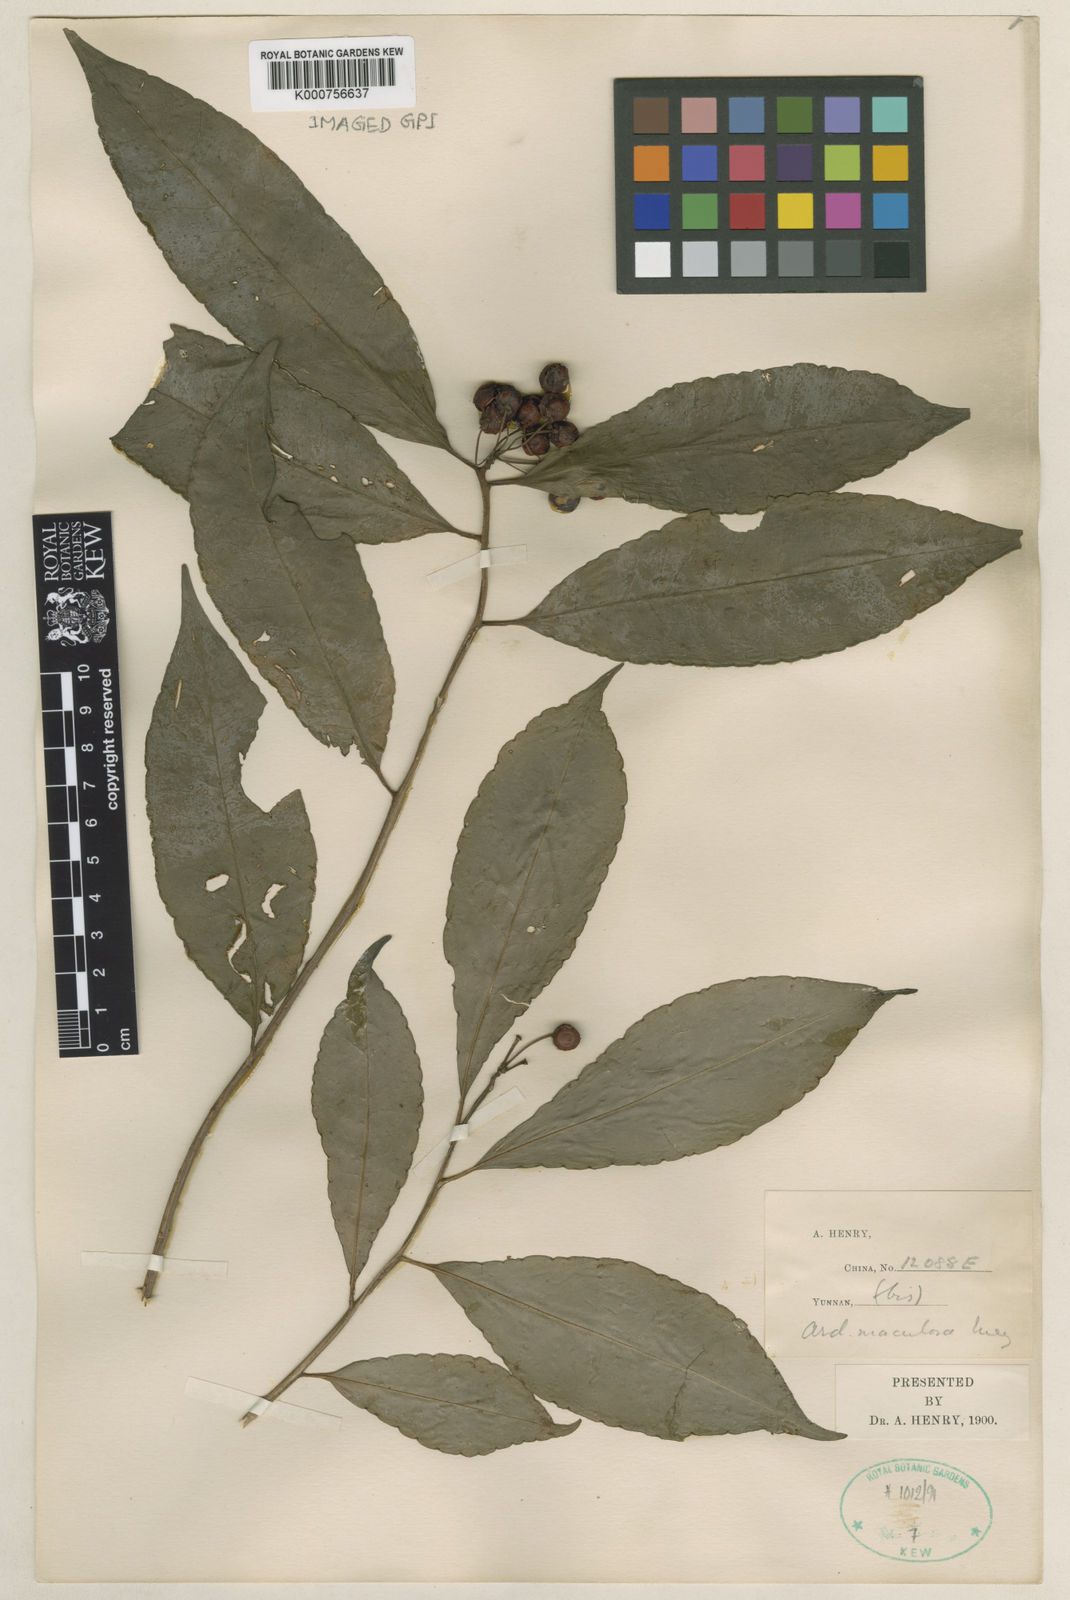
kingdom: Plantae
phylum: Tracheophyta
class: Magnoliopsida
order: Ericales
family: Primulaceae
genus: Ardisia
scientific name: Ardisia polysticta
